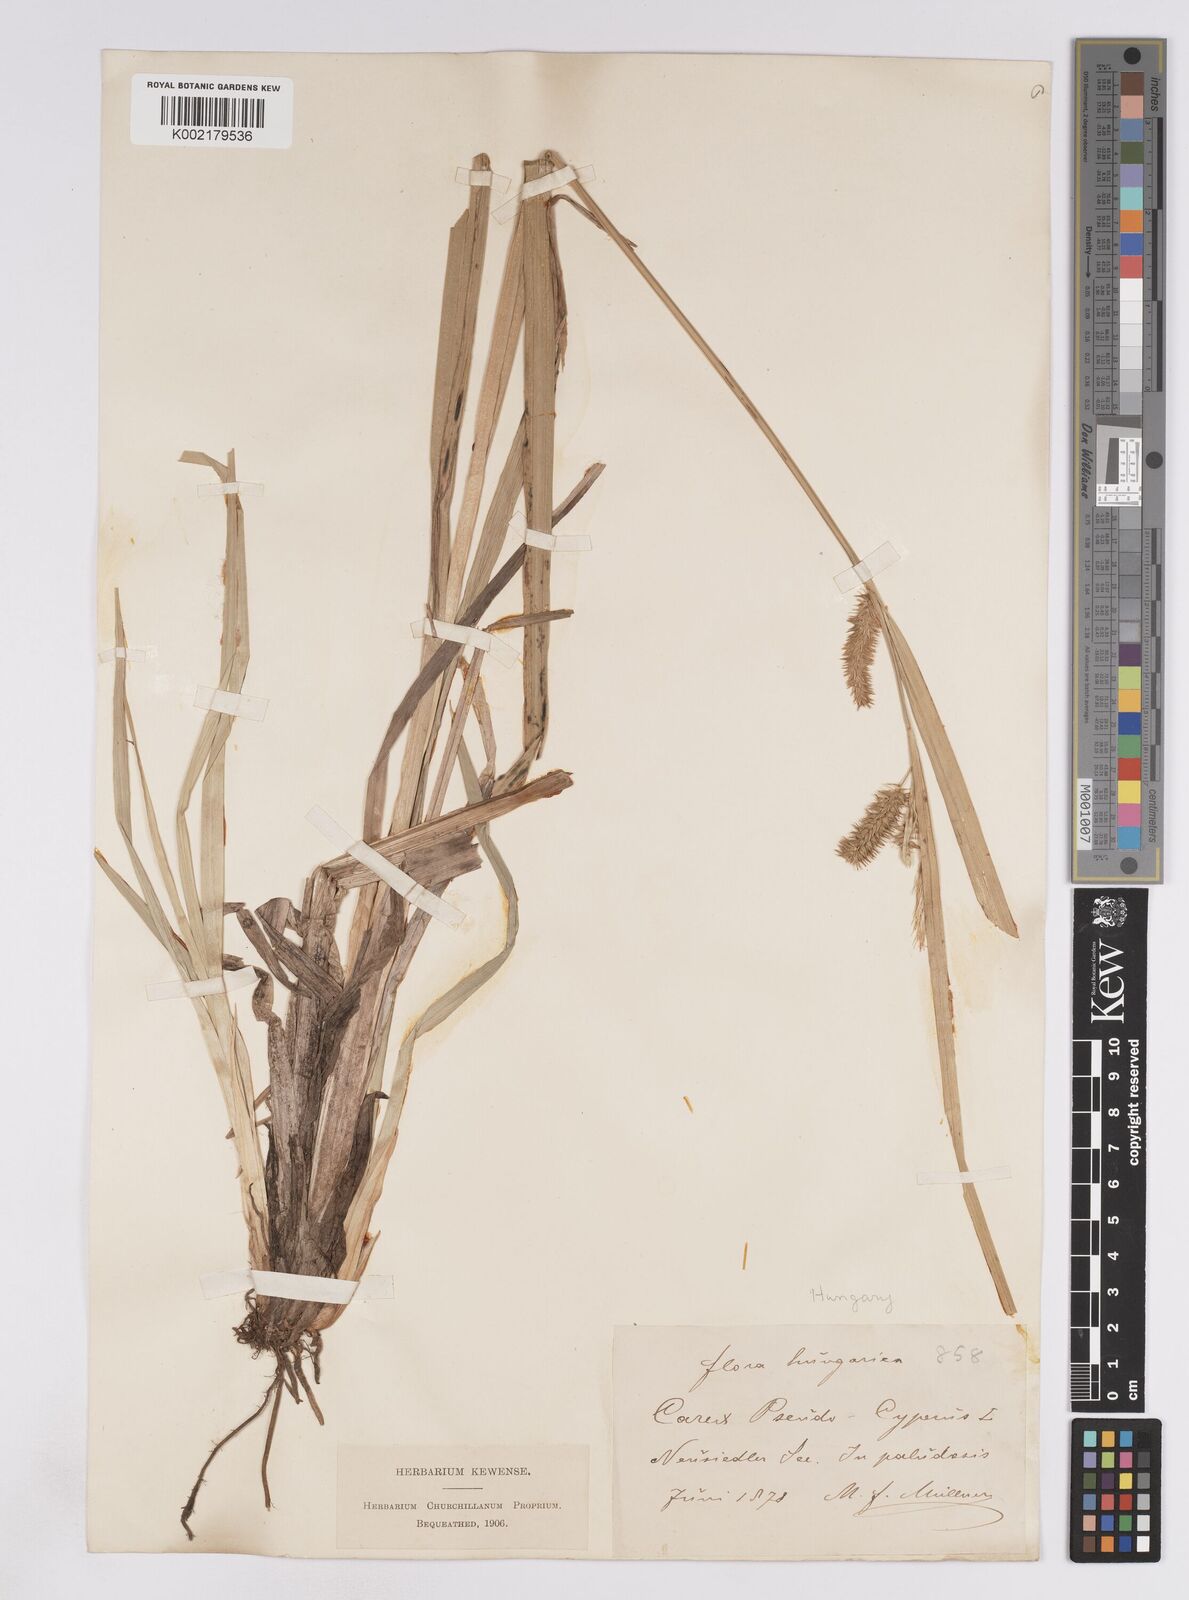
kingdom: Plantae
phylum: Tracheophyta
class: Liliopsida
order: Poales
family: Cyperaceae
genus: Carex
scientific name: Carex pseudocyperus
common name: Cyperus sedge
